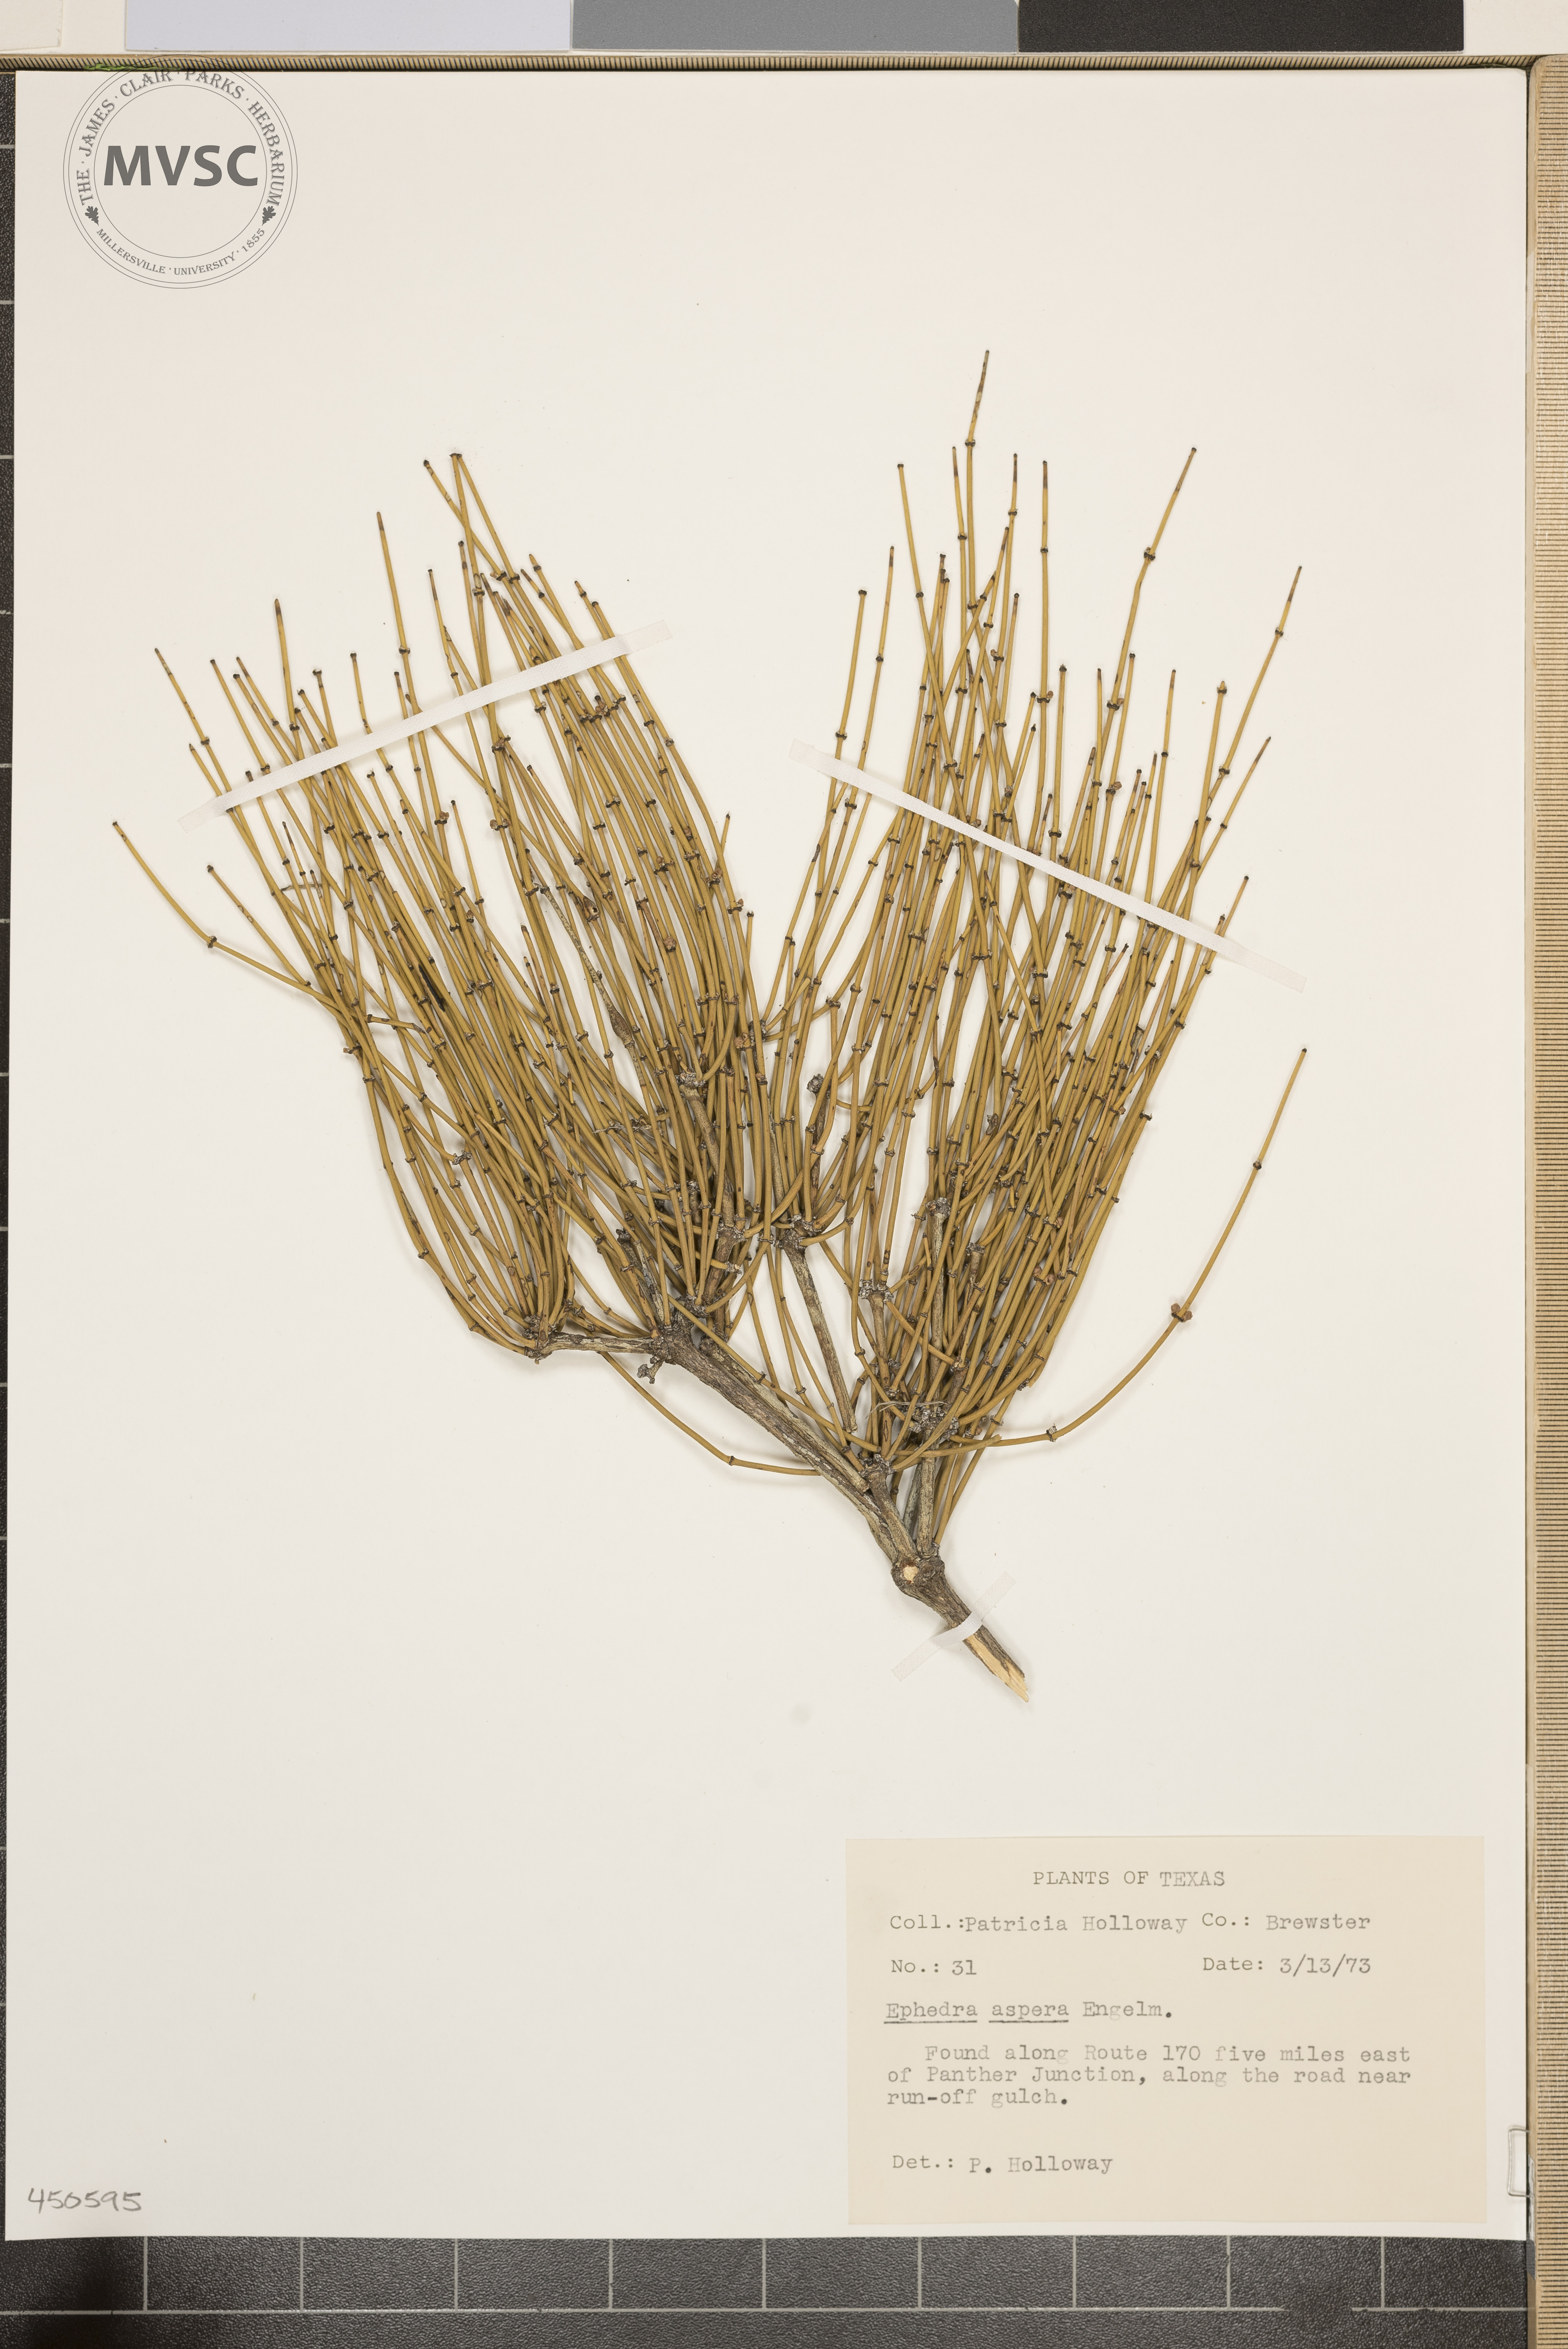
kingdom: Plantae
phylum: Tracheophyta
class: Gnetopsida
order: Ephedrales
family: Ephedraceae
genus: Ephedra
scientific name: Ephedra aspera
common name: Boundary ephedra
